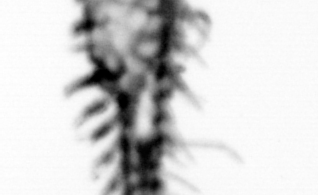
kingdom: Animalia
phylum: Annelida
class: Polychaeta
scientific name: Polychaeta
